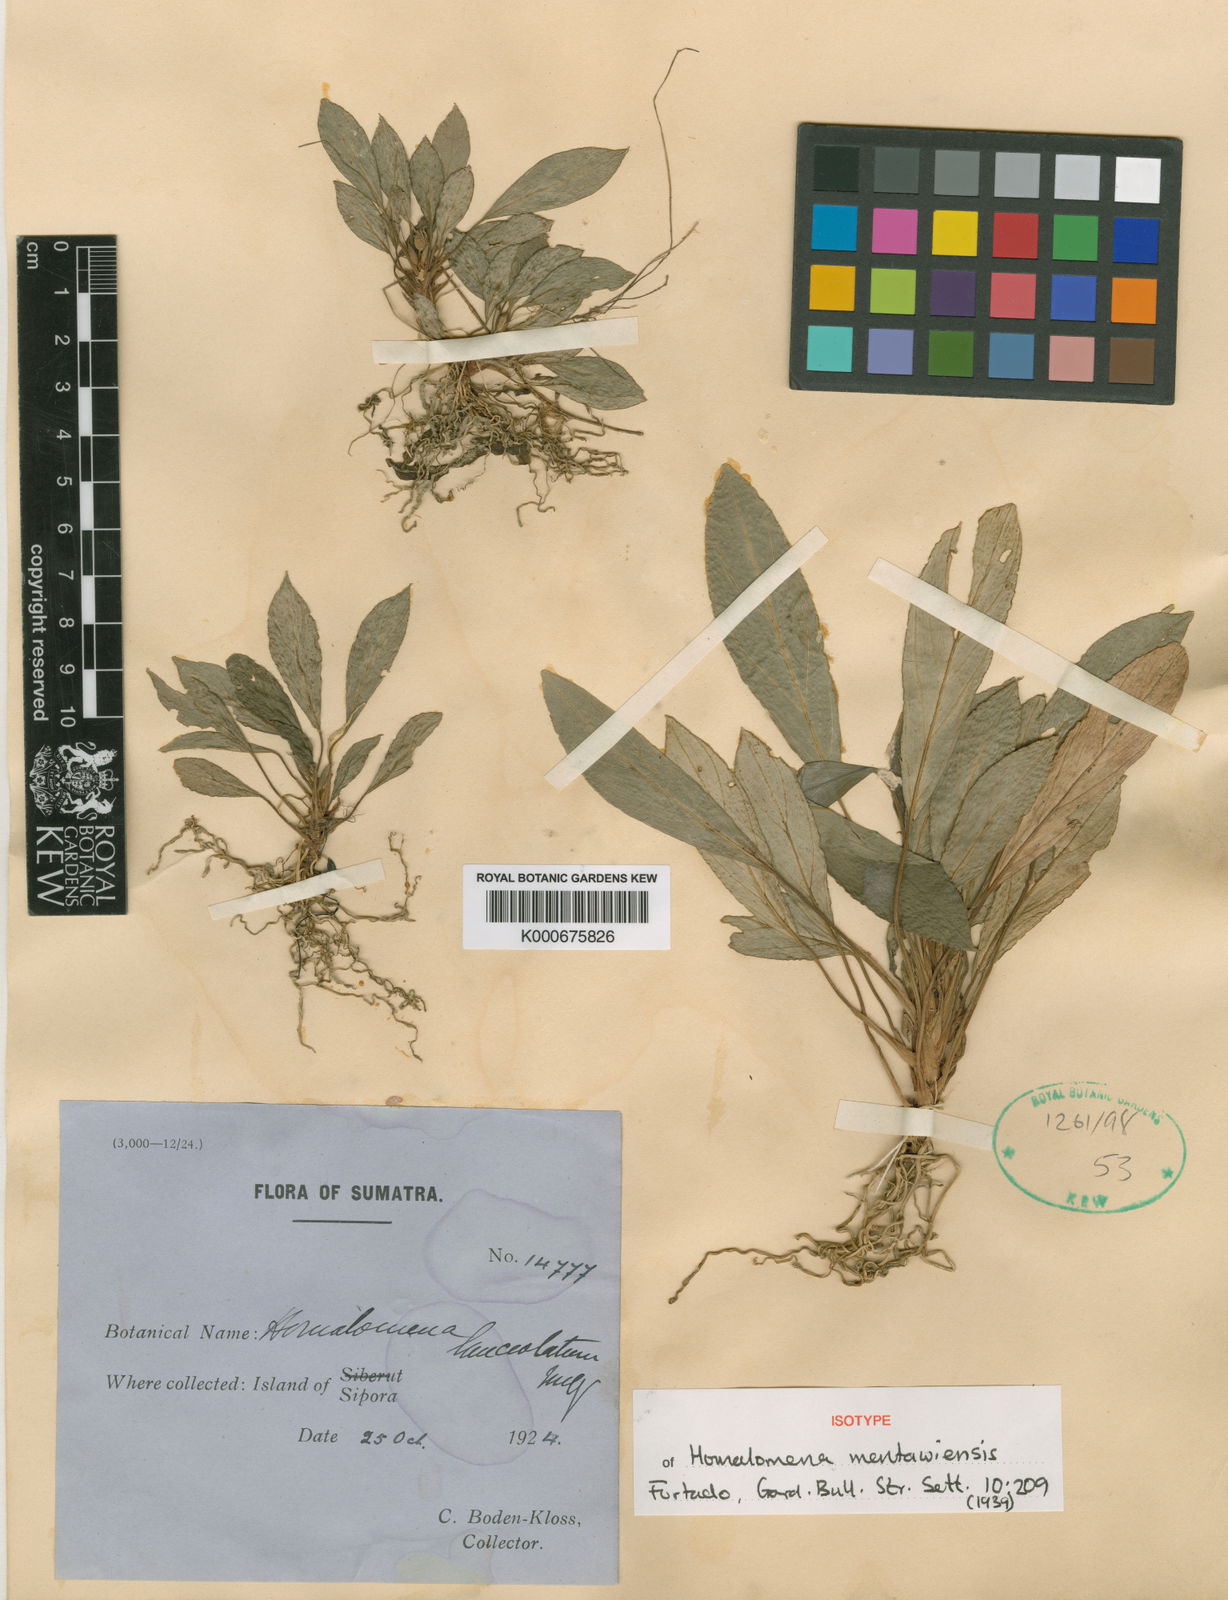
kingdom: Plantae
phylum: Tracheophyta
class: Liliopsida
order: Alismatales
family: Araceae
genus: Homalomena
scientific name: Homalomena humilis
